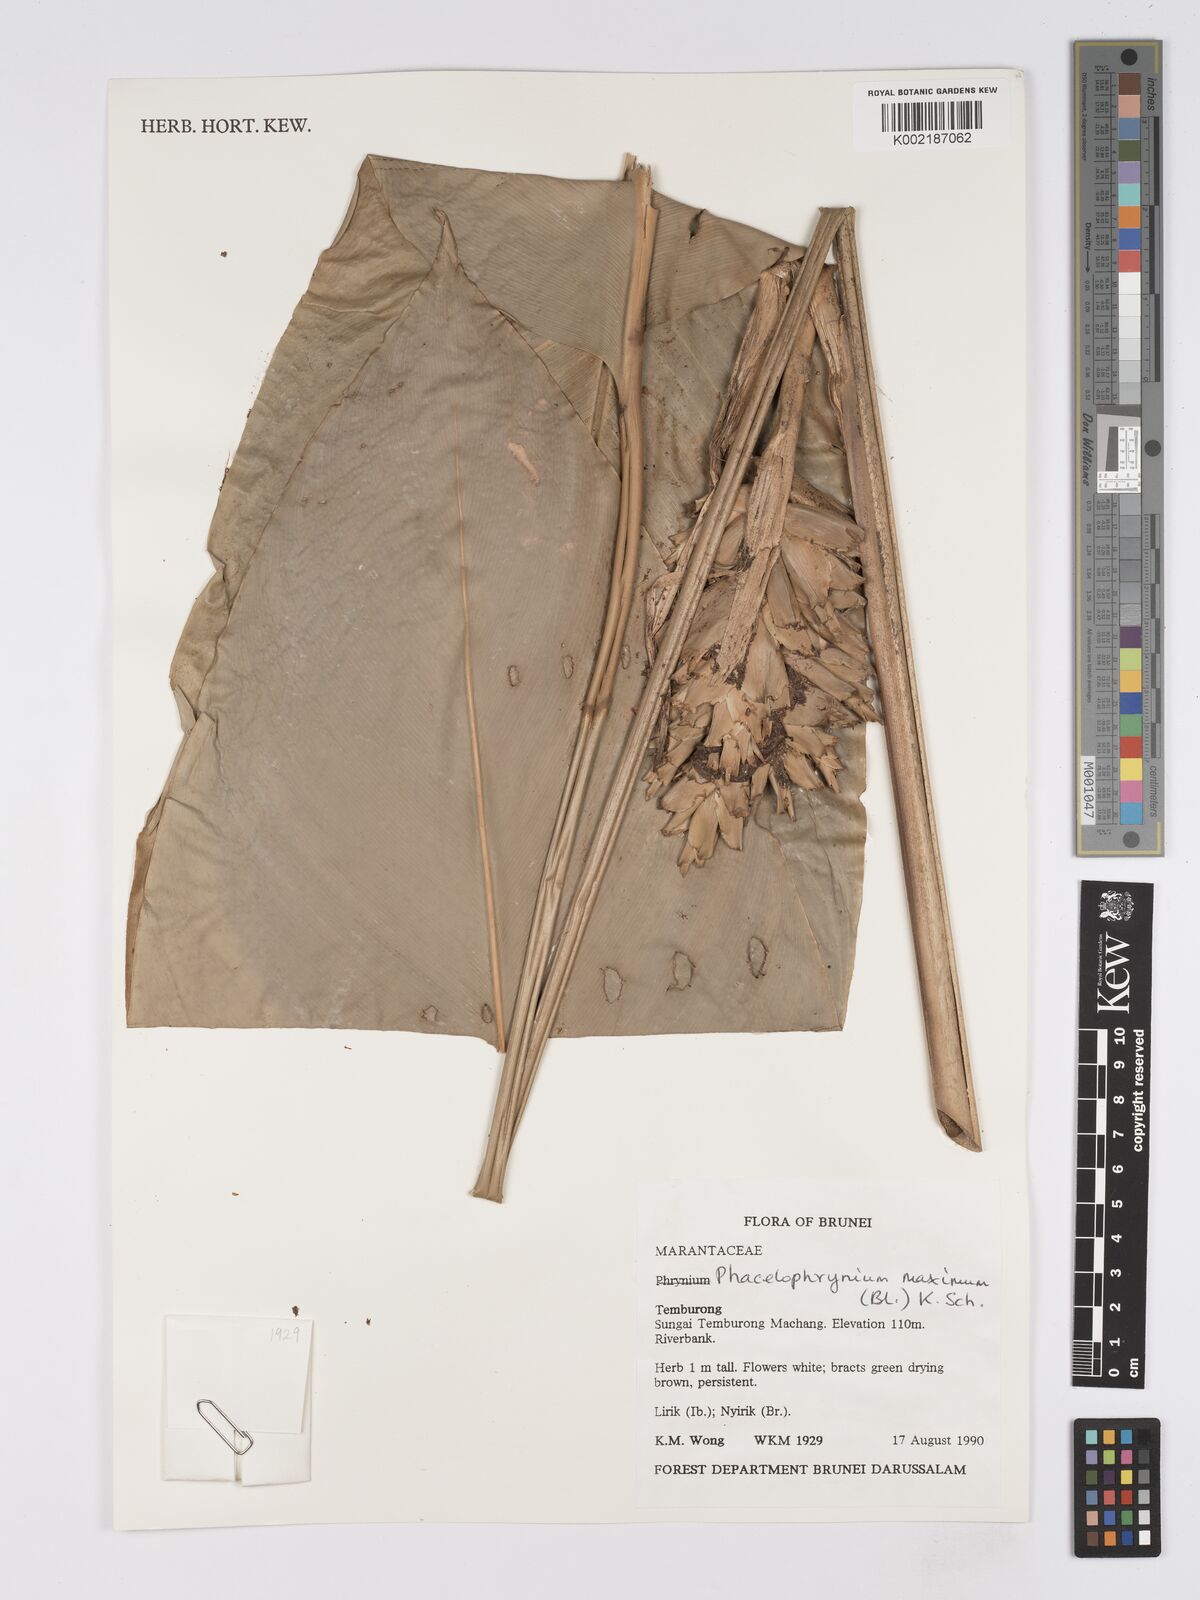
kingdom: Plantae
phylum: Tracheophyta
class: Liliopsida
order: Zingiberales
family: Marantaceae
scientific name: Marantaceae
